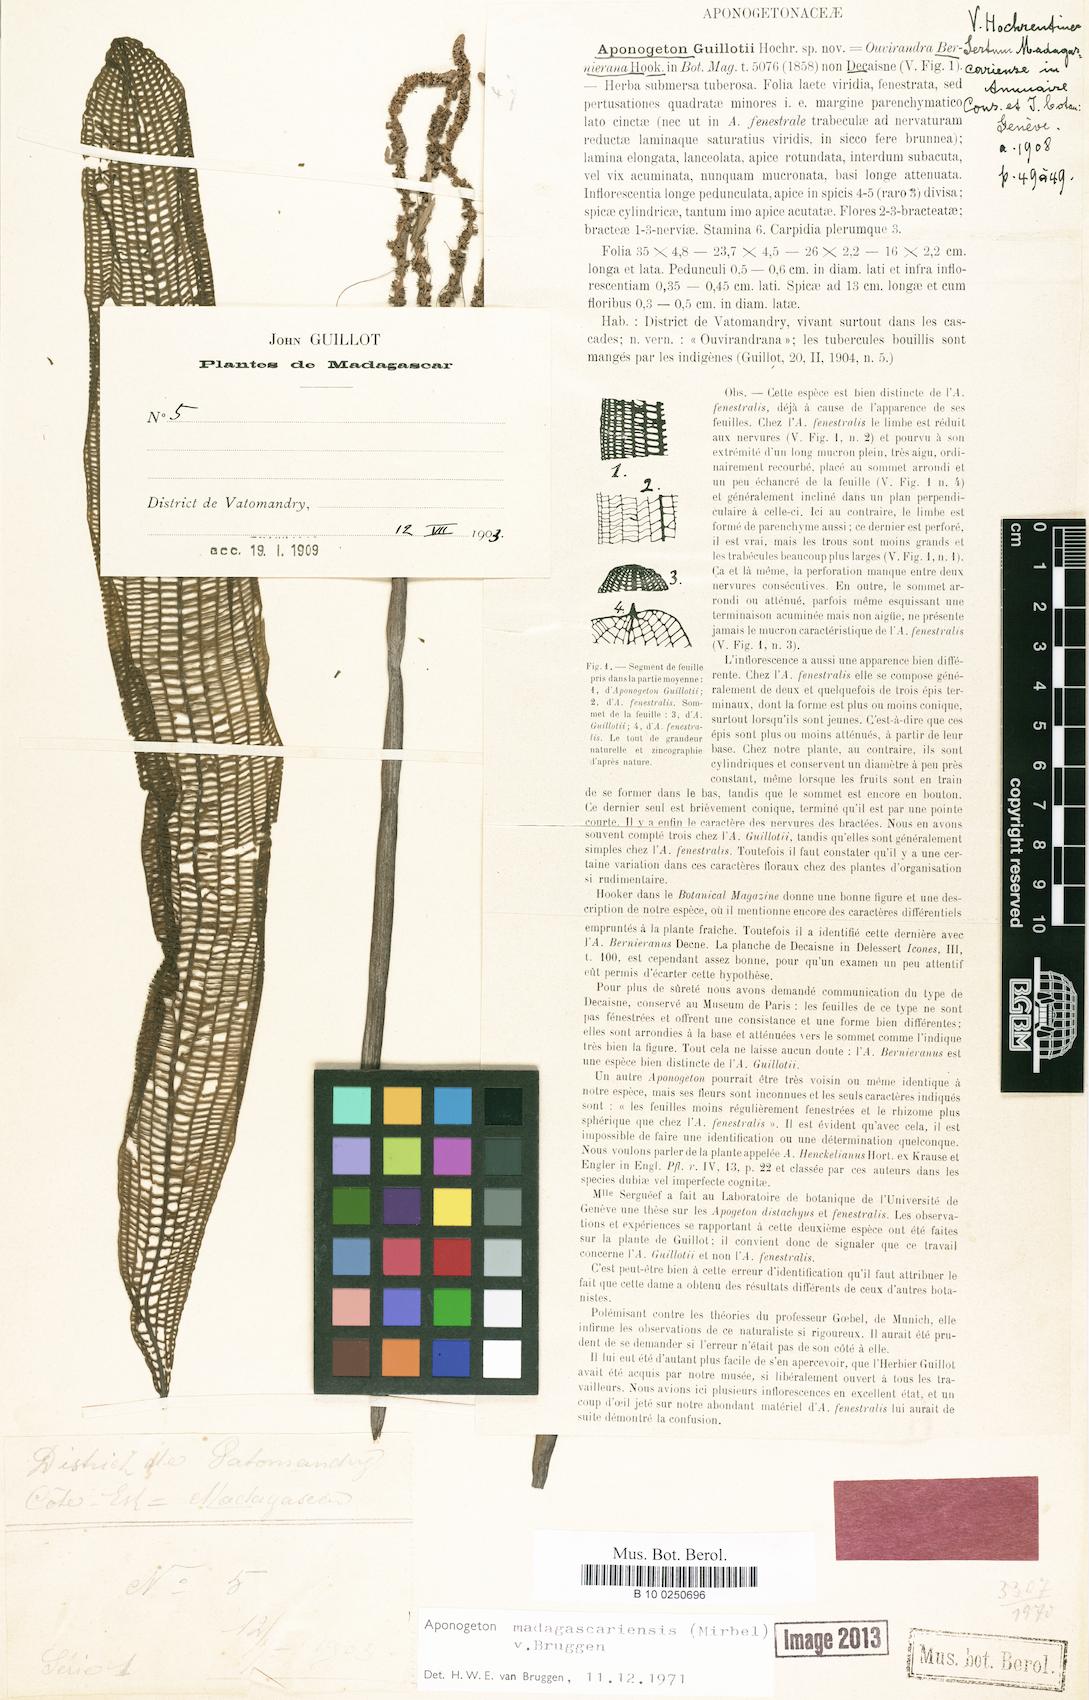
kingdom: Plantae
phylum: Tracheophyta
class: Liliopsida
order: Alismatales
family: Aponogetonaceae
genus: Aponogeton
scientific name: Aponogeton madagascariensis
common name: Laceleaf
